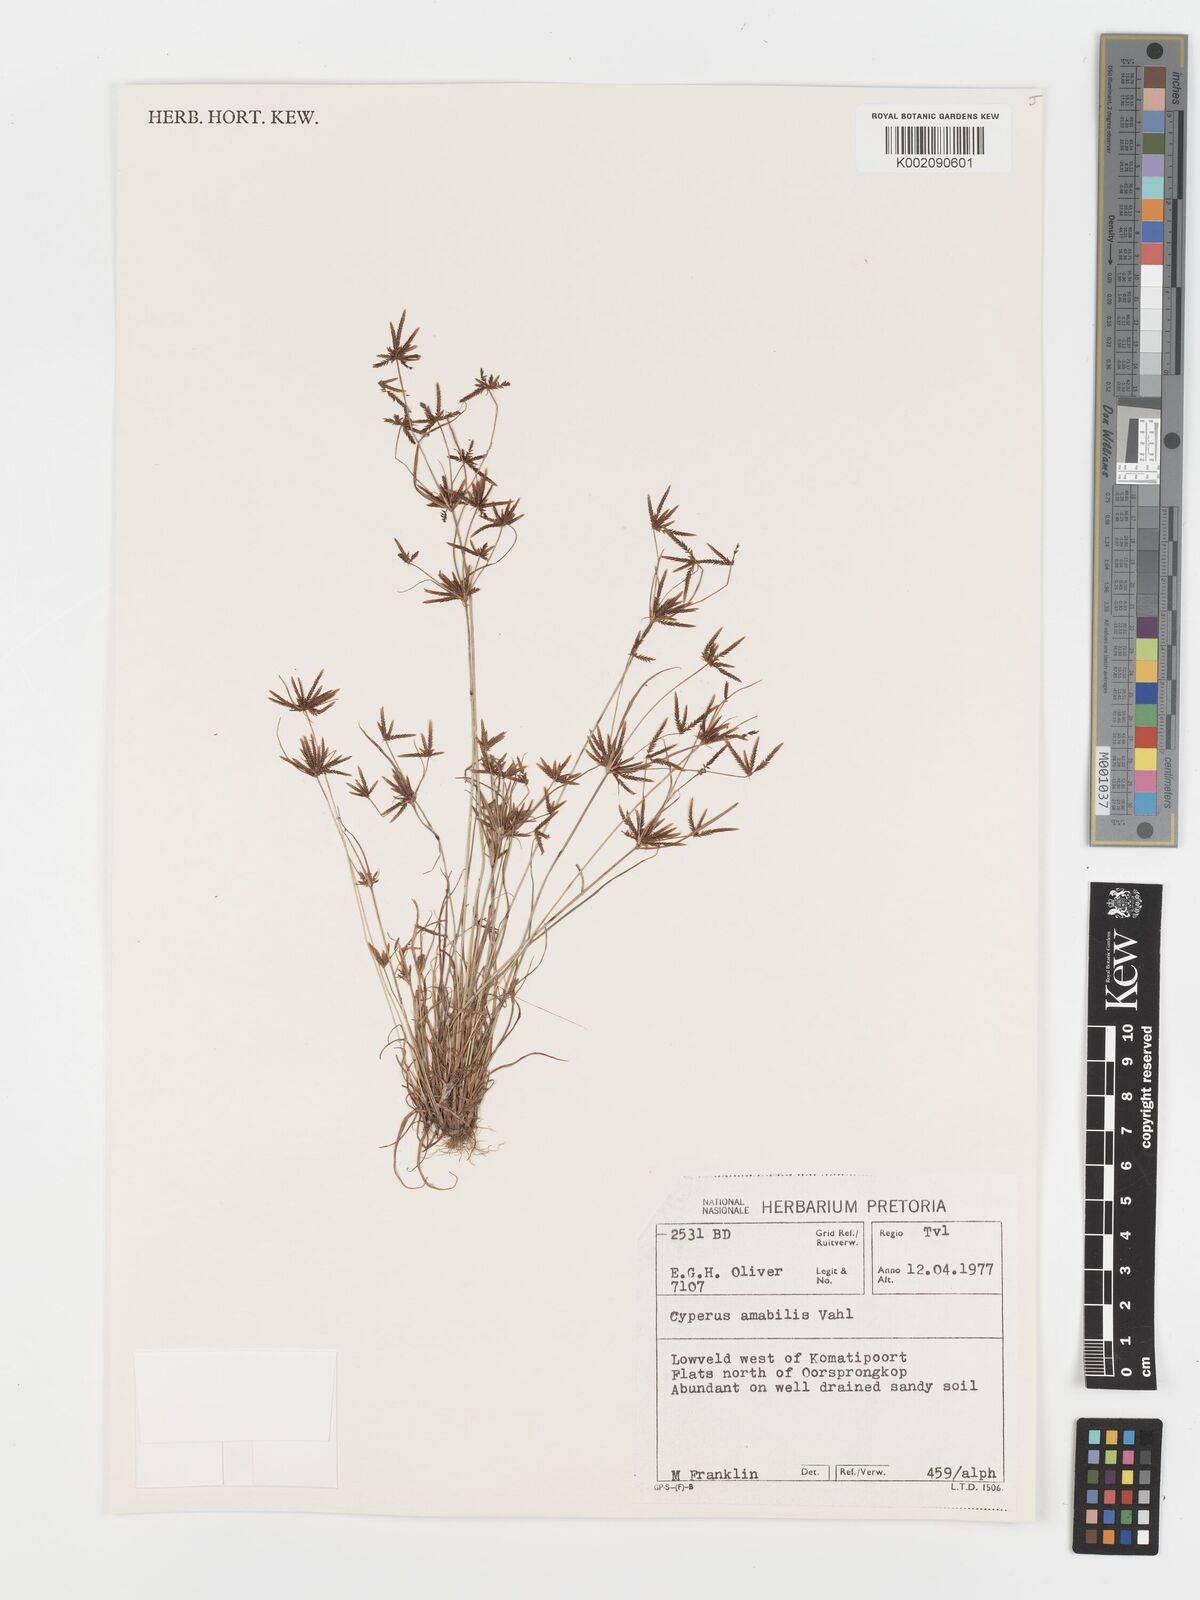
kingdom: Plantae
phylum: Tracheophyta
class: Liliopsida
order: Poales
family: Cyperaceae
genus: Cyperus
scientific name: Cyperus amabilis
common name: Foothill flat sedge
